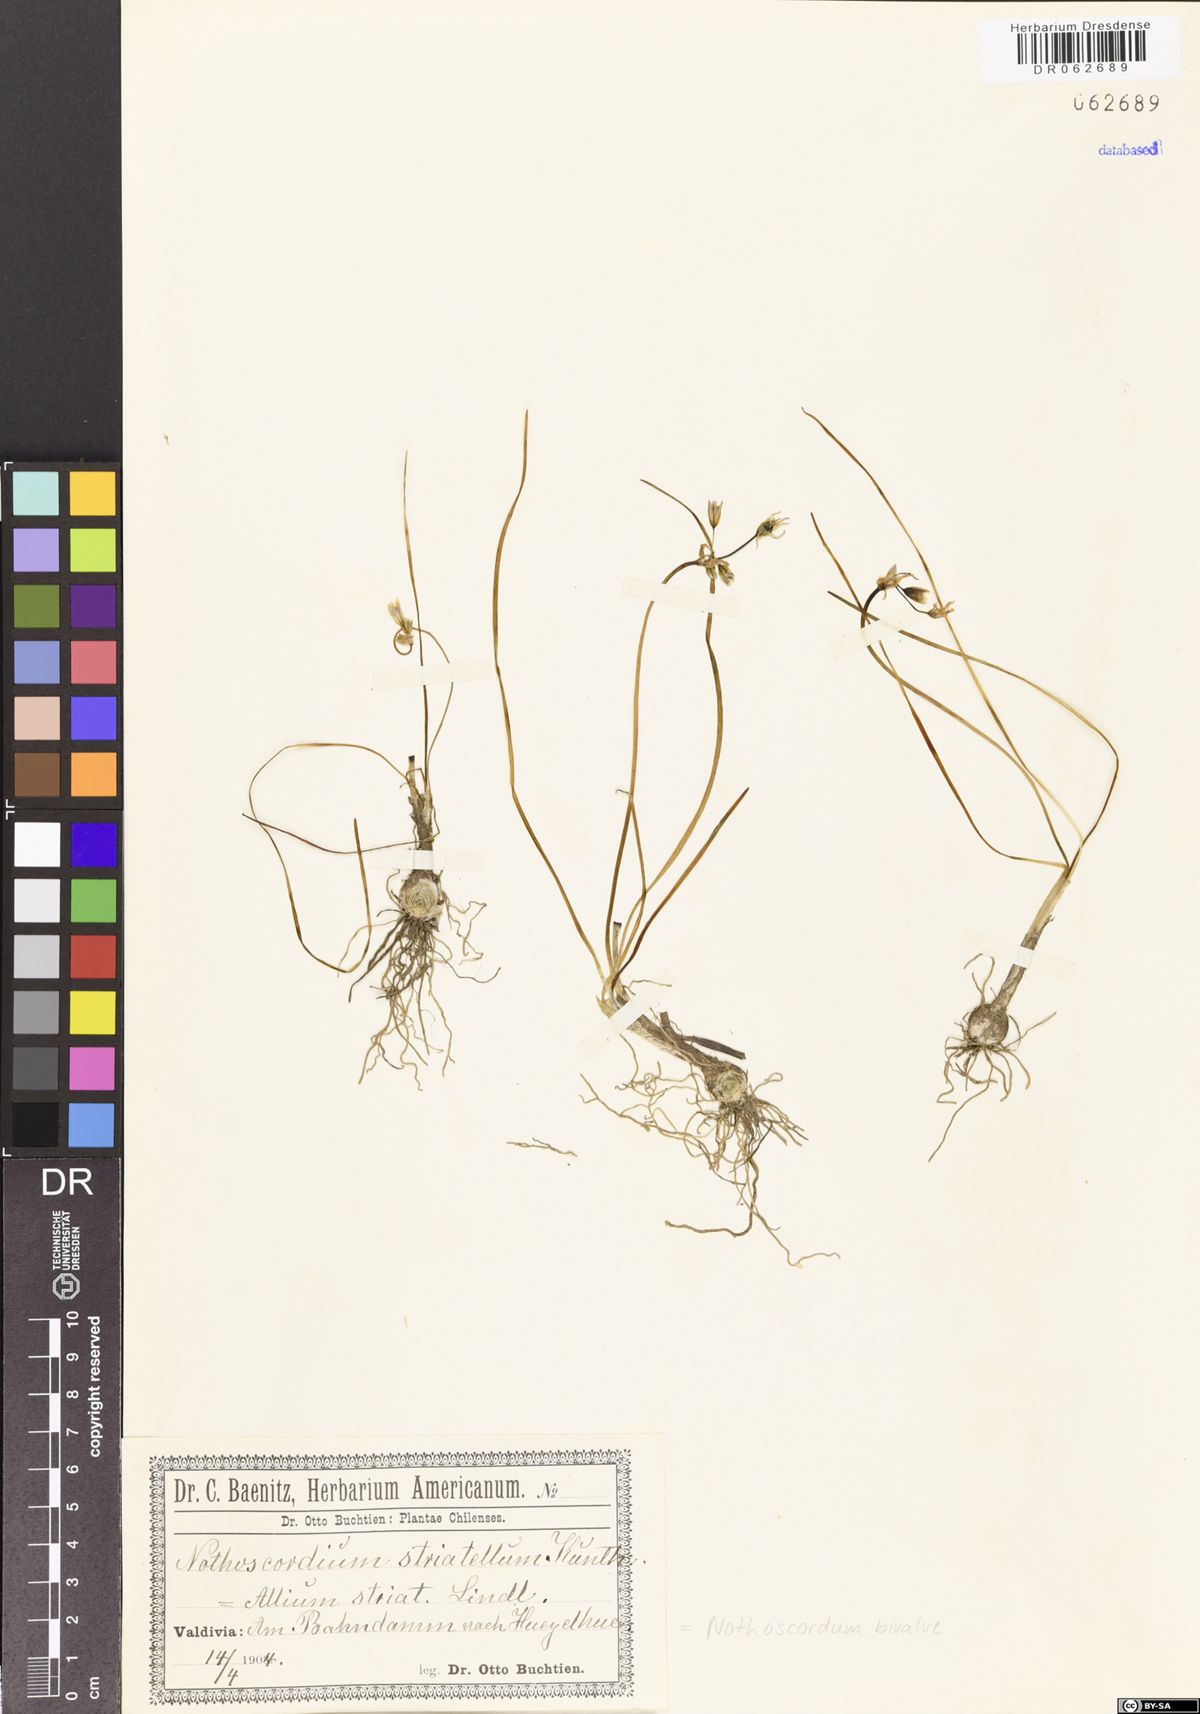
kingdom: Plantae
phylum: Tracheophyta
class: Liliopsida
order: Asparagales
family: Amaryllidaceae
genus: Nothoscordum
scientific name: Nothoscordum bivalve
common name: Crow-poison
